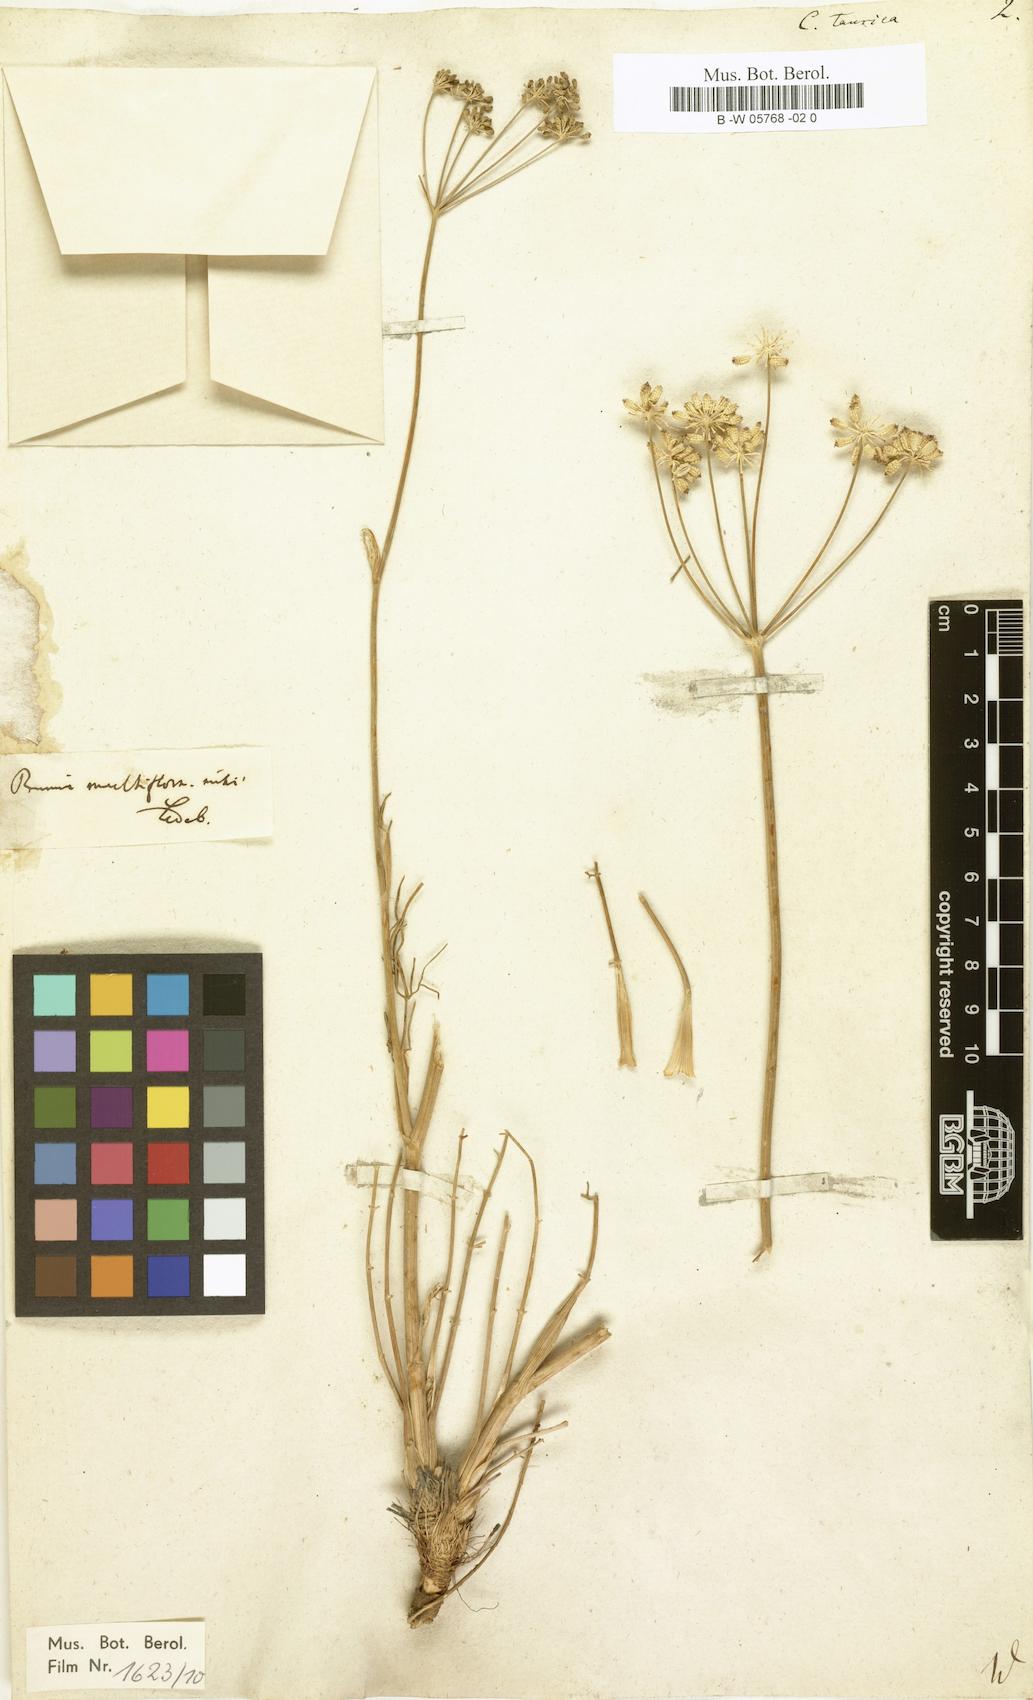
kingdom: Plantae
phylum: Tracheophyta
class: Magnoliopsida
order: Apiales
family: Apiaceae
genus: Trinia
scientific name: Trinia crithmifolia
